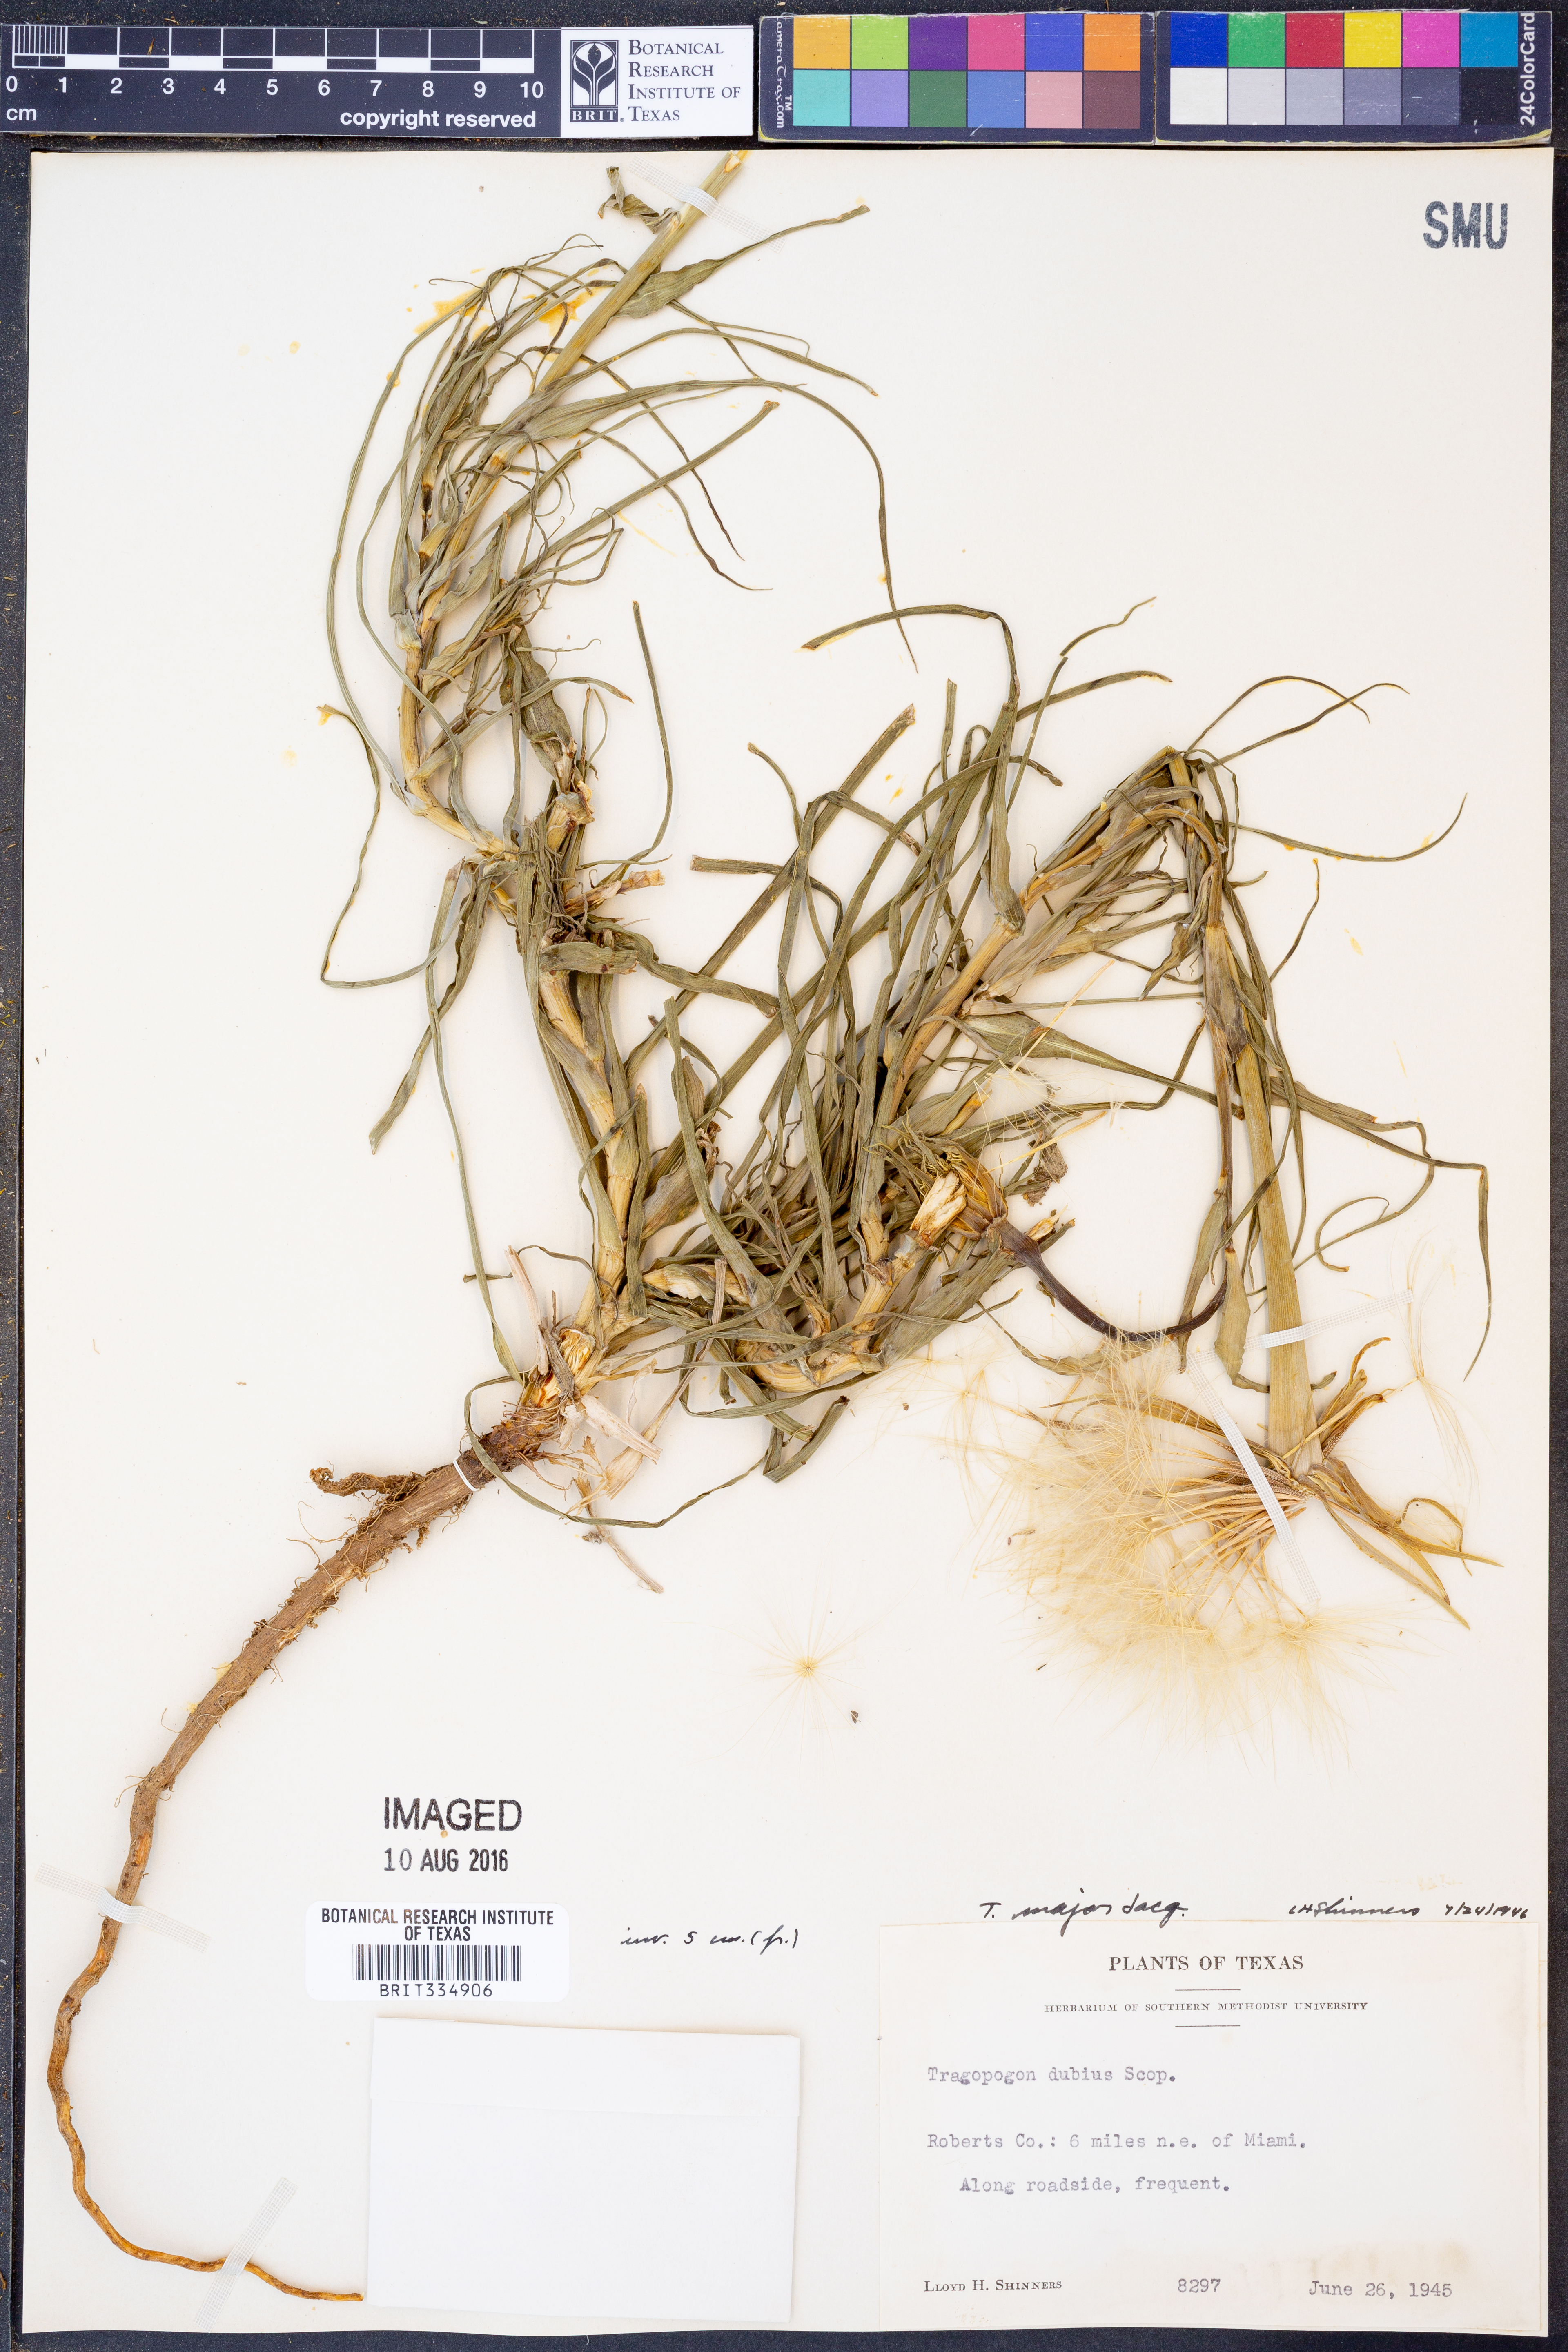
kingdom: Plantae
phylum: Tracheophyta
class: Magnoliopsida
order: Asterales
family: Asteraceae
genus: Tragopogon
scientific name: Tragopogon dubius
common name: Yellow salsify
